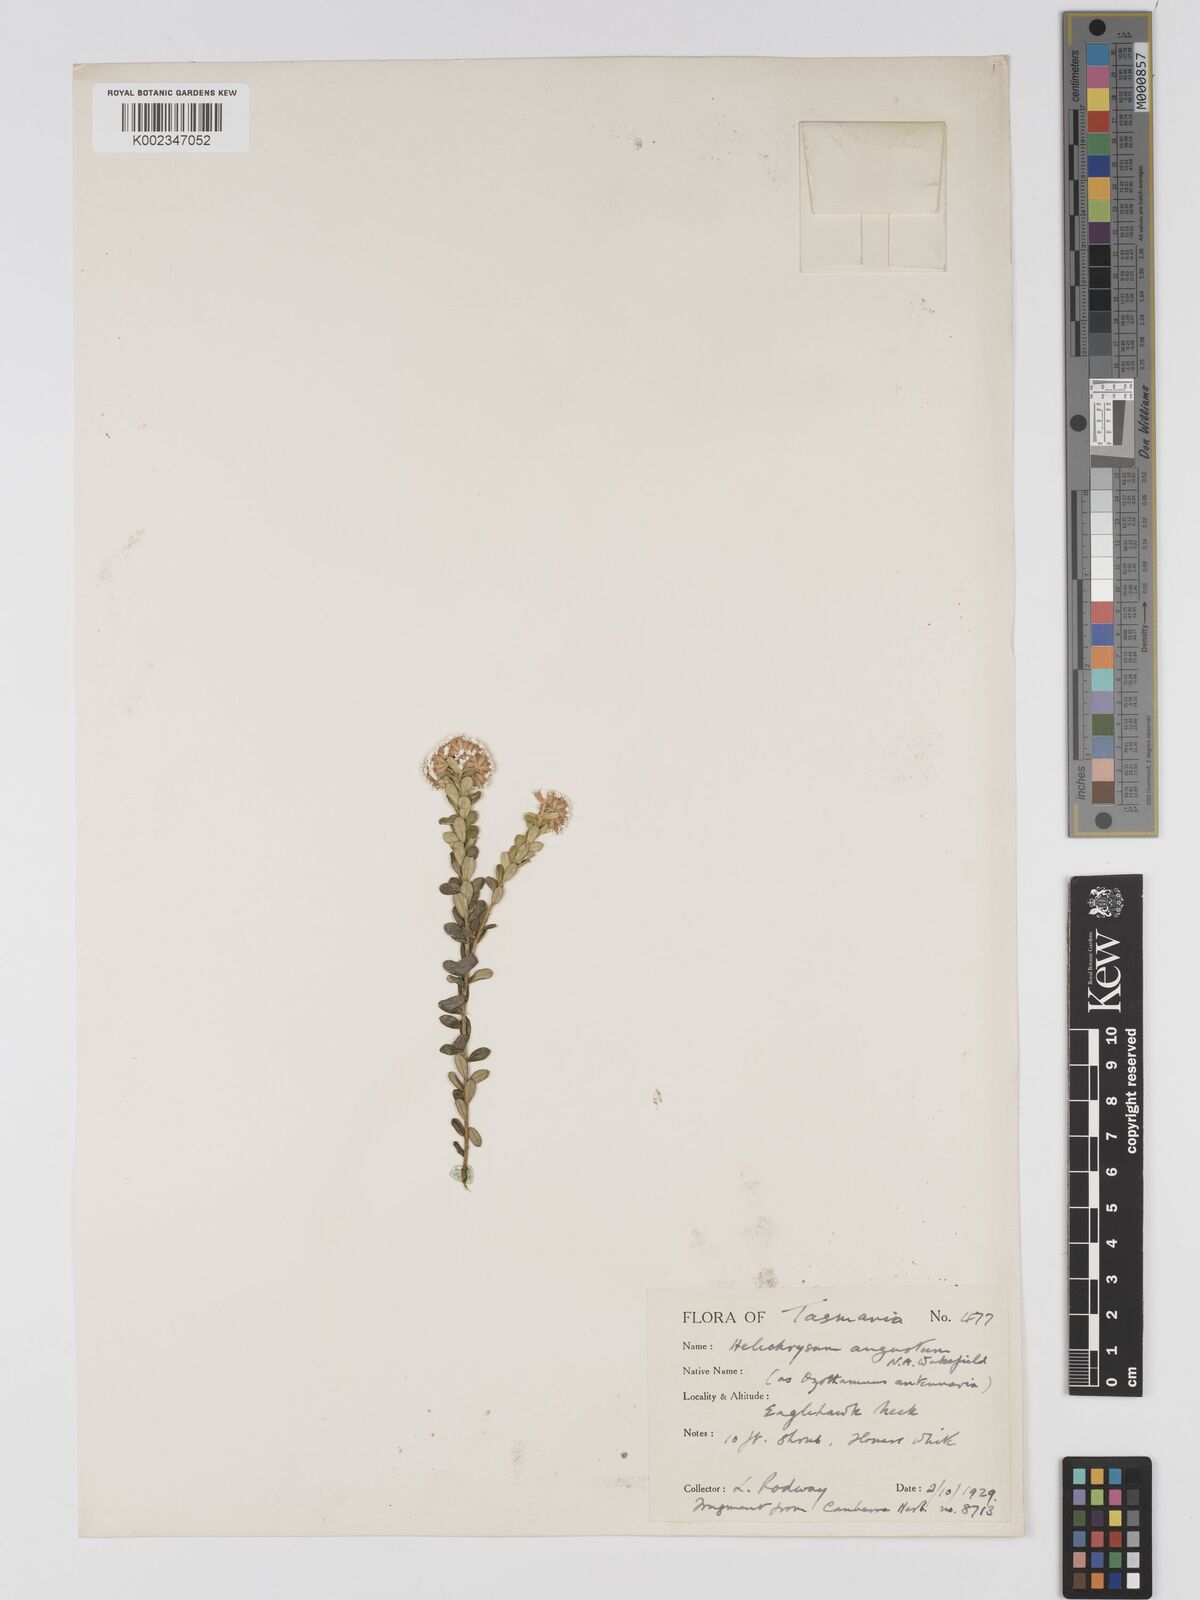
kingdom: Plantae
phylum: Tracheophyta
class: Magnoliopsida
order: Asterales
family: Asteraceae
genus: Odixia
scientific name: Odixia angusta
